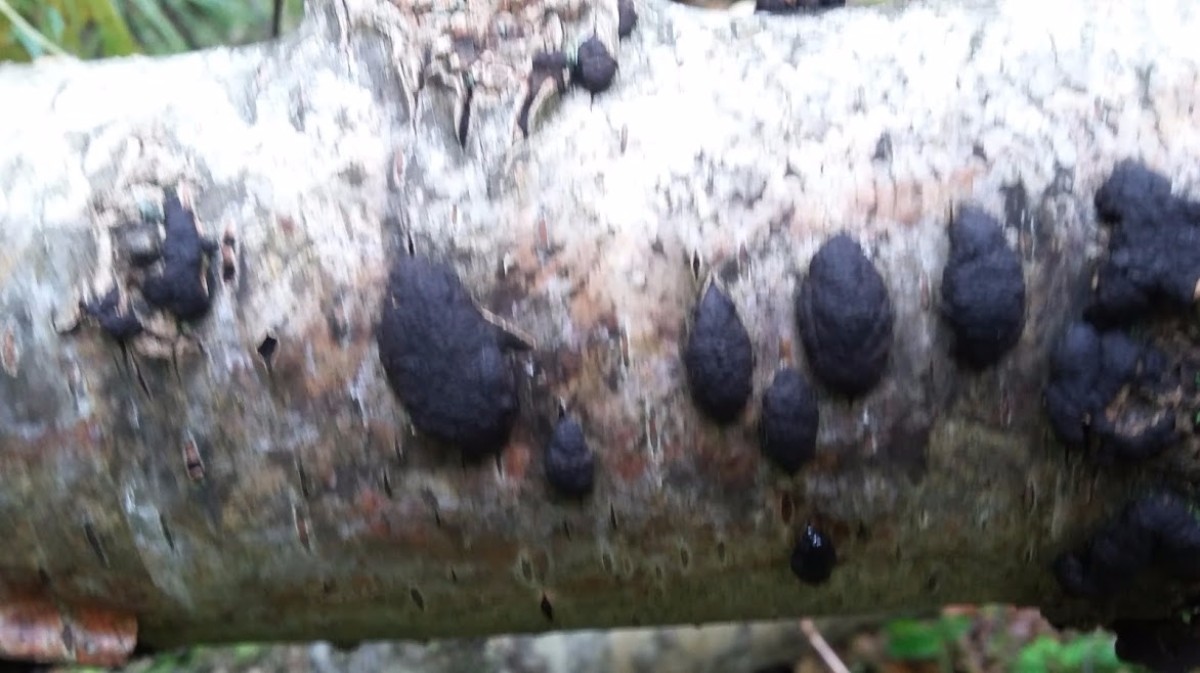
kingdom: Fungi
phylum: Ascomycota
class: Sordariomycetes
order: Xylariales
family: Hypoxylaceae
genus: Jackrogersella
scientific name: Jackrogersella multiformis
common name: foranderlig kulbær
